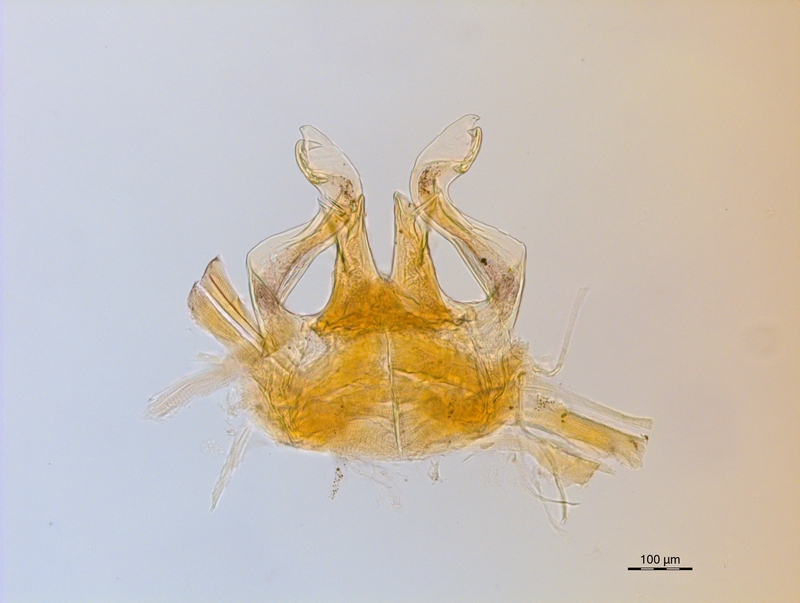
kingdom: Animalia
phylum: Arthropoda
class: Diplopoda
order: Chordeumatida
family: Craspedosomatidae
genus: Ochogona
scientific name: Ochogona brentana
